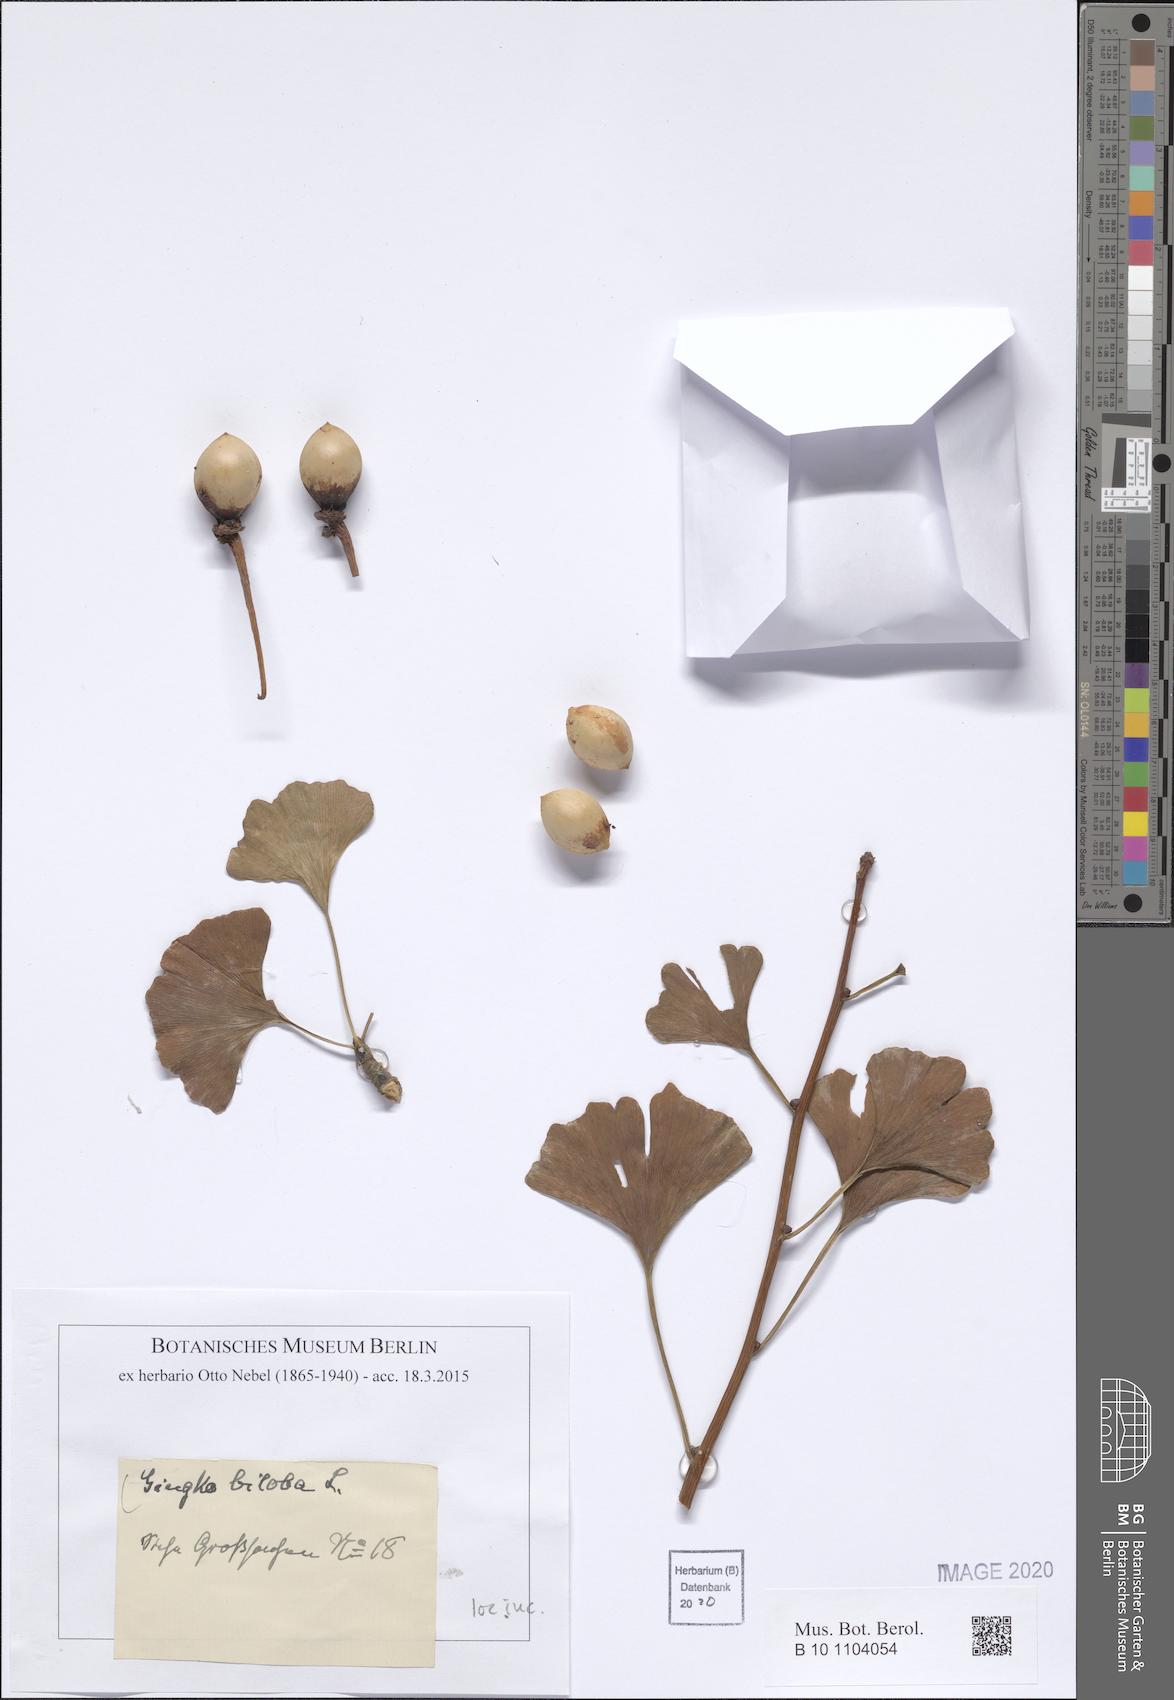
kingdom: Plantae
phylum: Tracheophyta
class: Ginkgoopsida
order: Ginkgoales
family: Ginkgoaceae
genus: Ginkgo
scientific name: Ginkgo biloba
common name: Ginkgo
